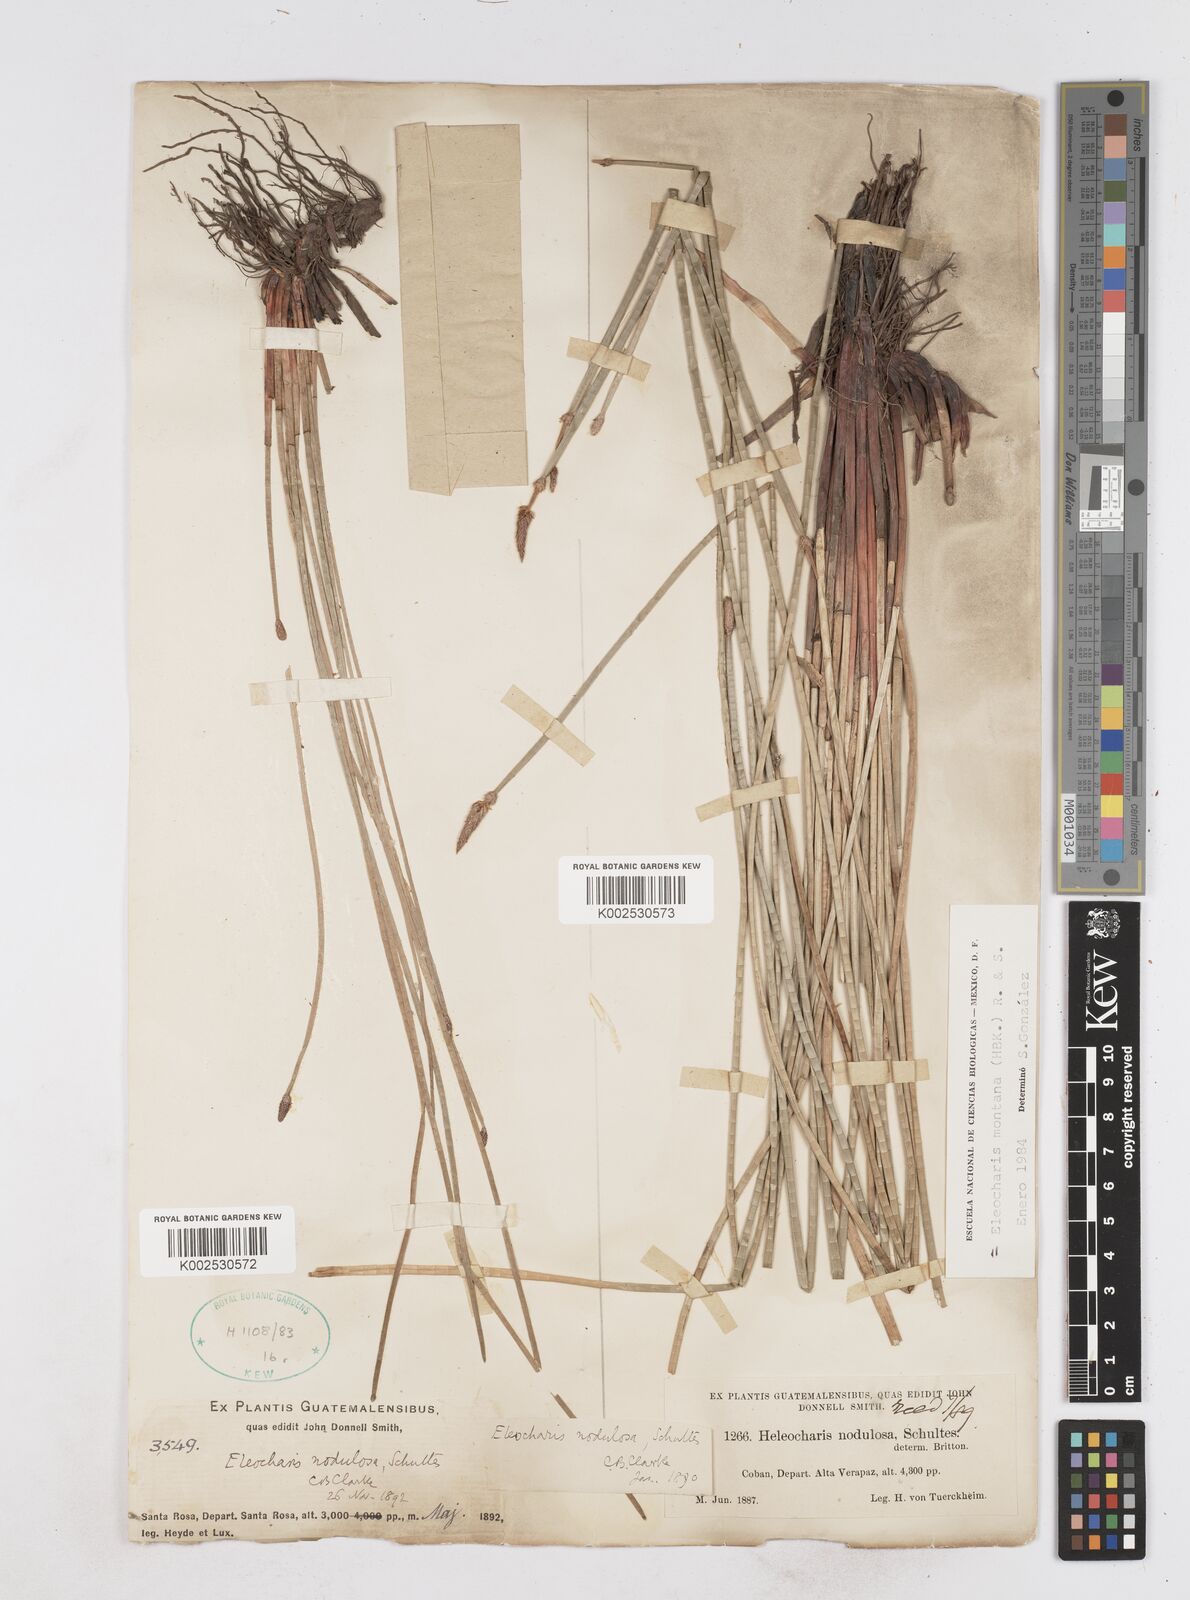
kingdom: Plantae
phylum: Tracheophyta
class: Liliopsida
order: Poales
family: Cyperaceae
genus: Eleocharis
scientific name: Eleocharis montana
